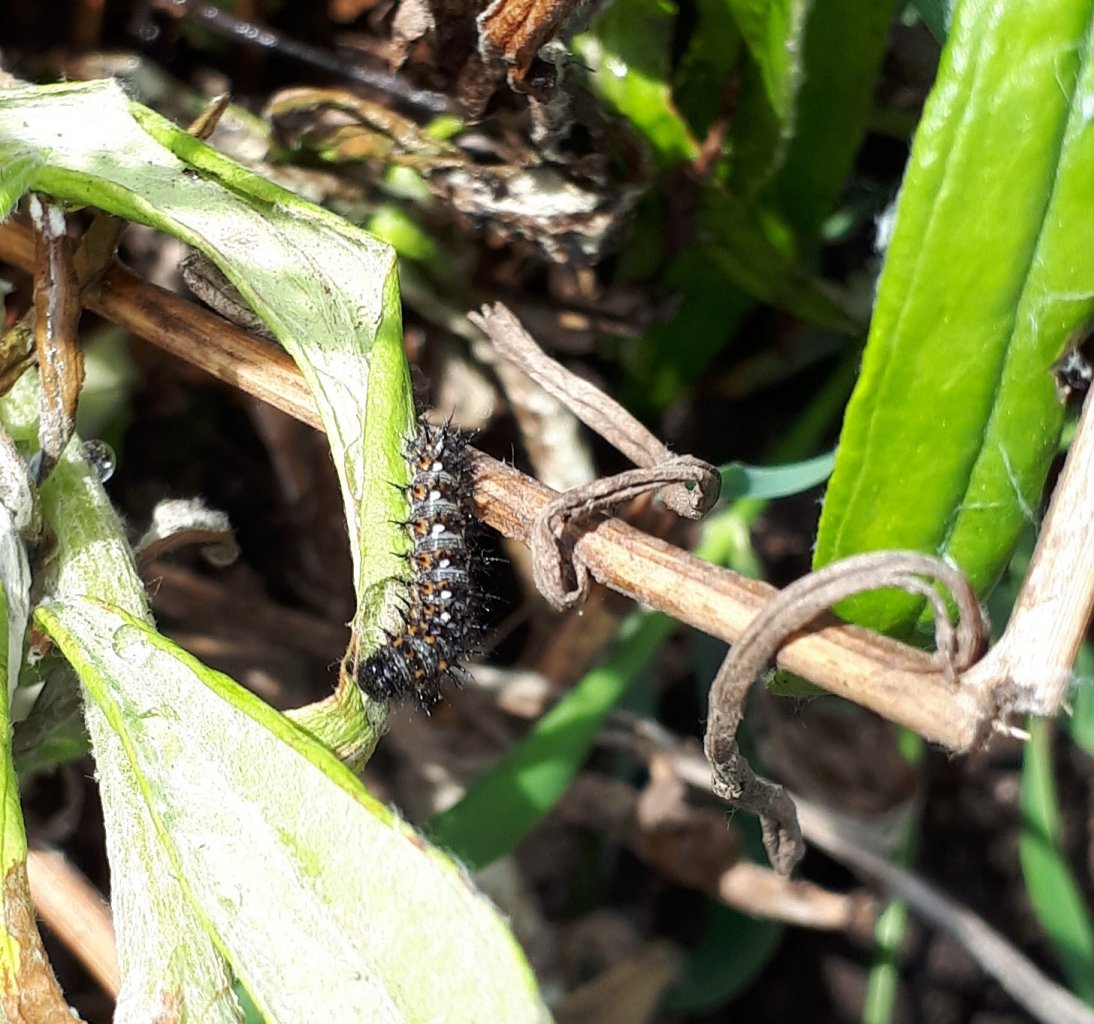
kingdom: Animalia
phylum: Arthropoda
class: Insecta
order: Lepidoptera
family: Nymphalidae
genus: Vanessa
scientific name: Vanessa virginiensis
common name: American Lady
